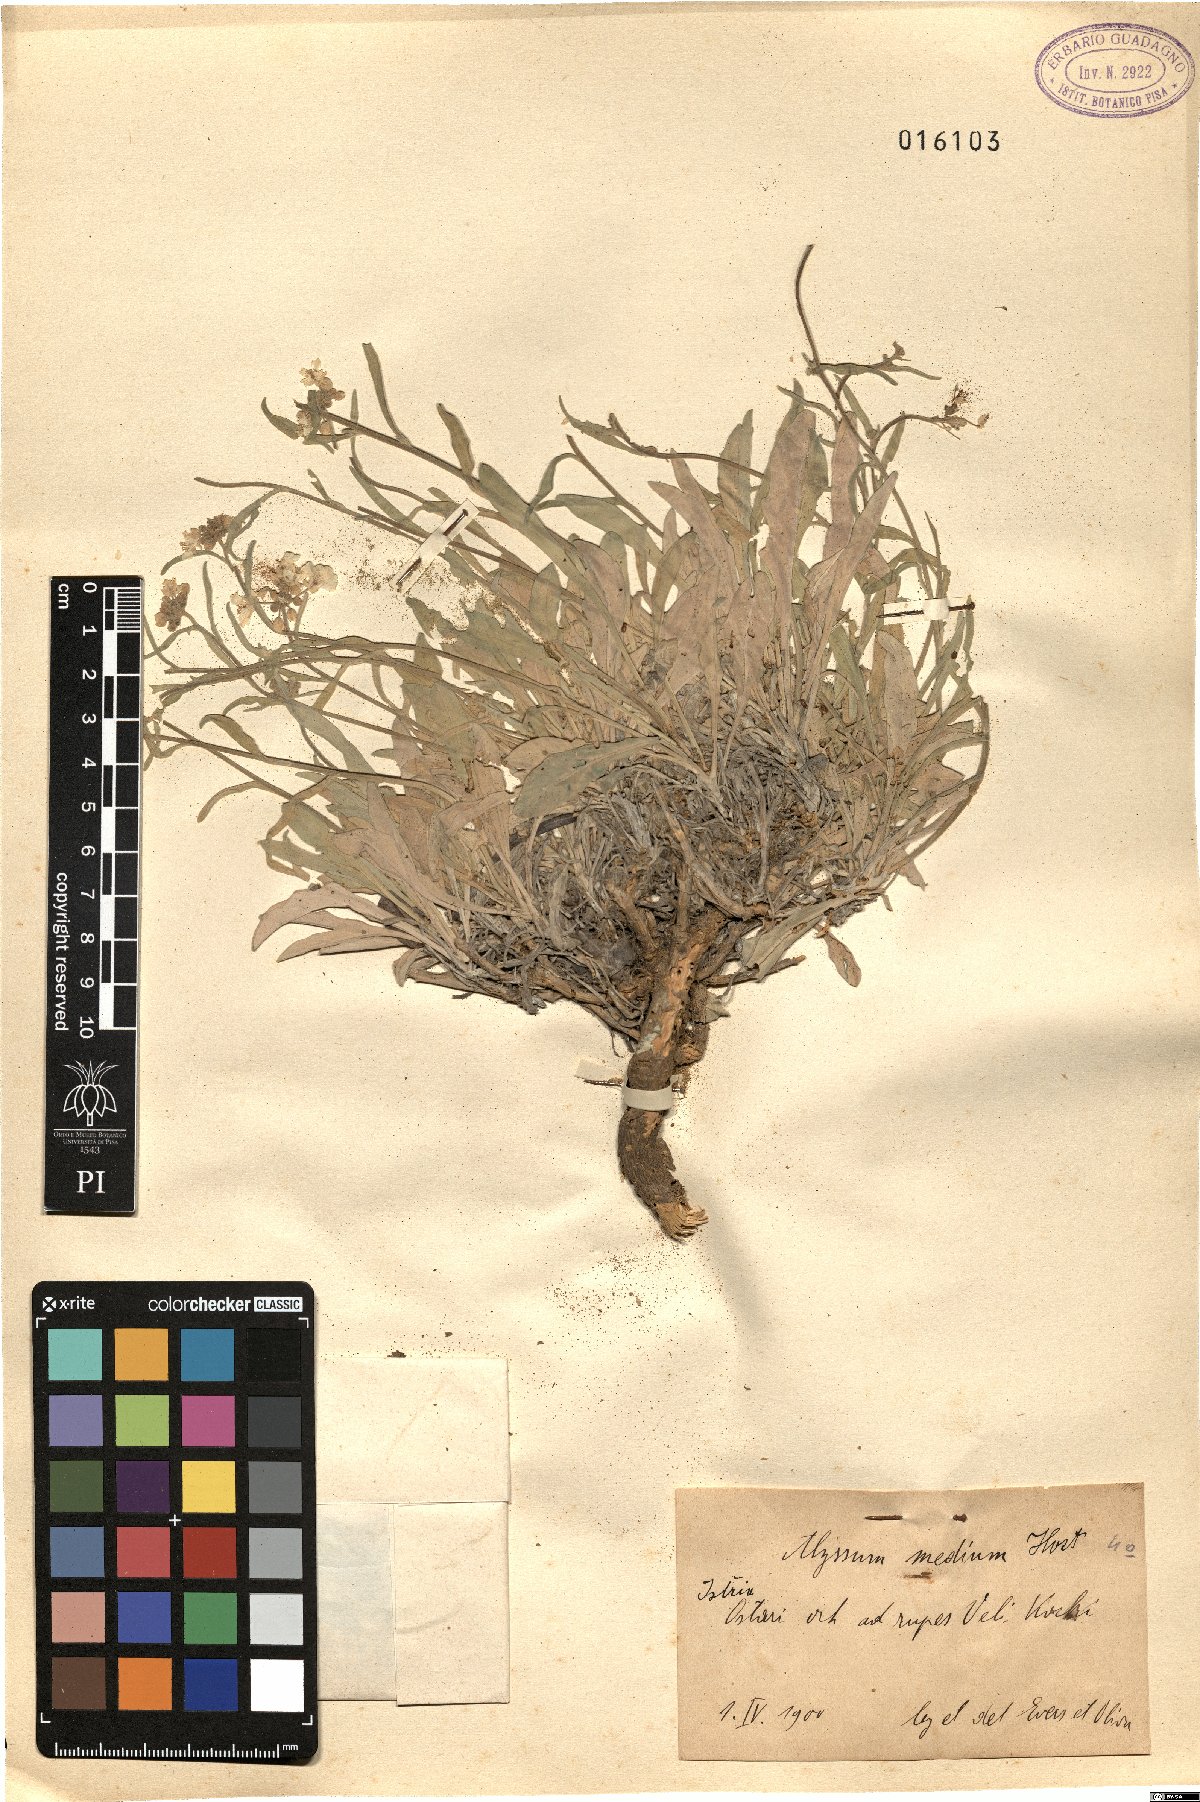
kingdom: Plantae
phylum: Tracheophyta
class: Magnoliopsida
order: Brassicales
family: Brassicaceae
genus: Aurinia
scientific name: Aurinia leucadea
